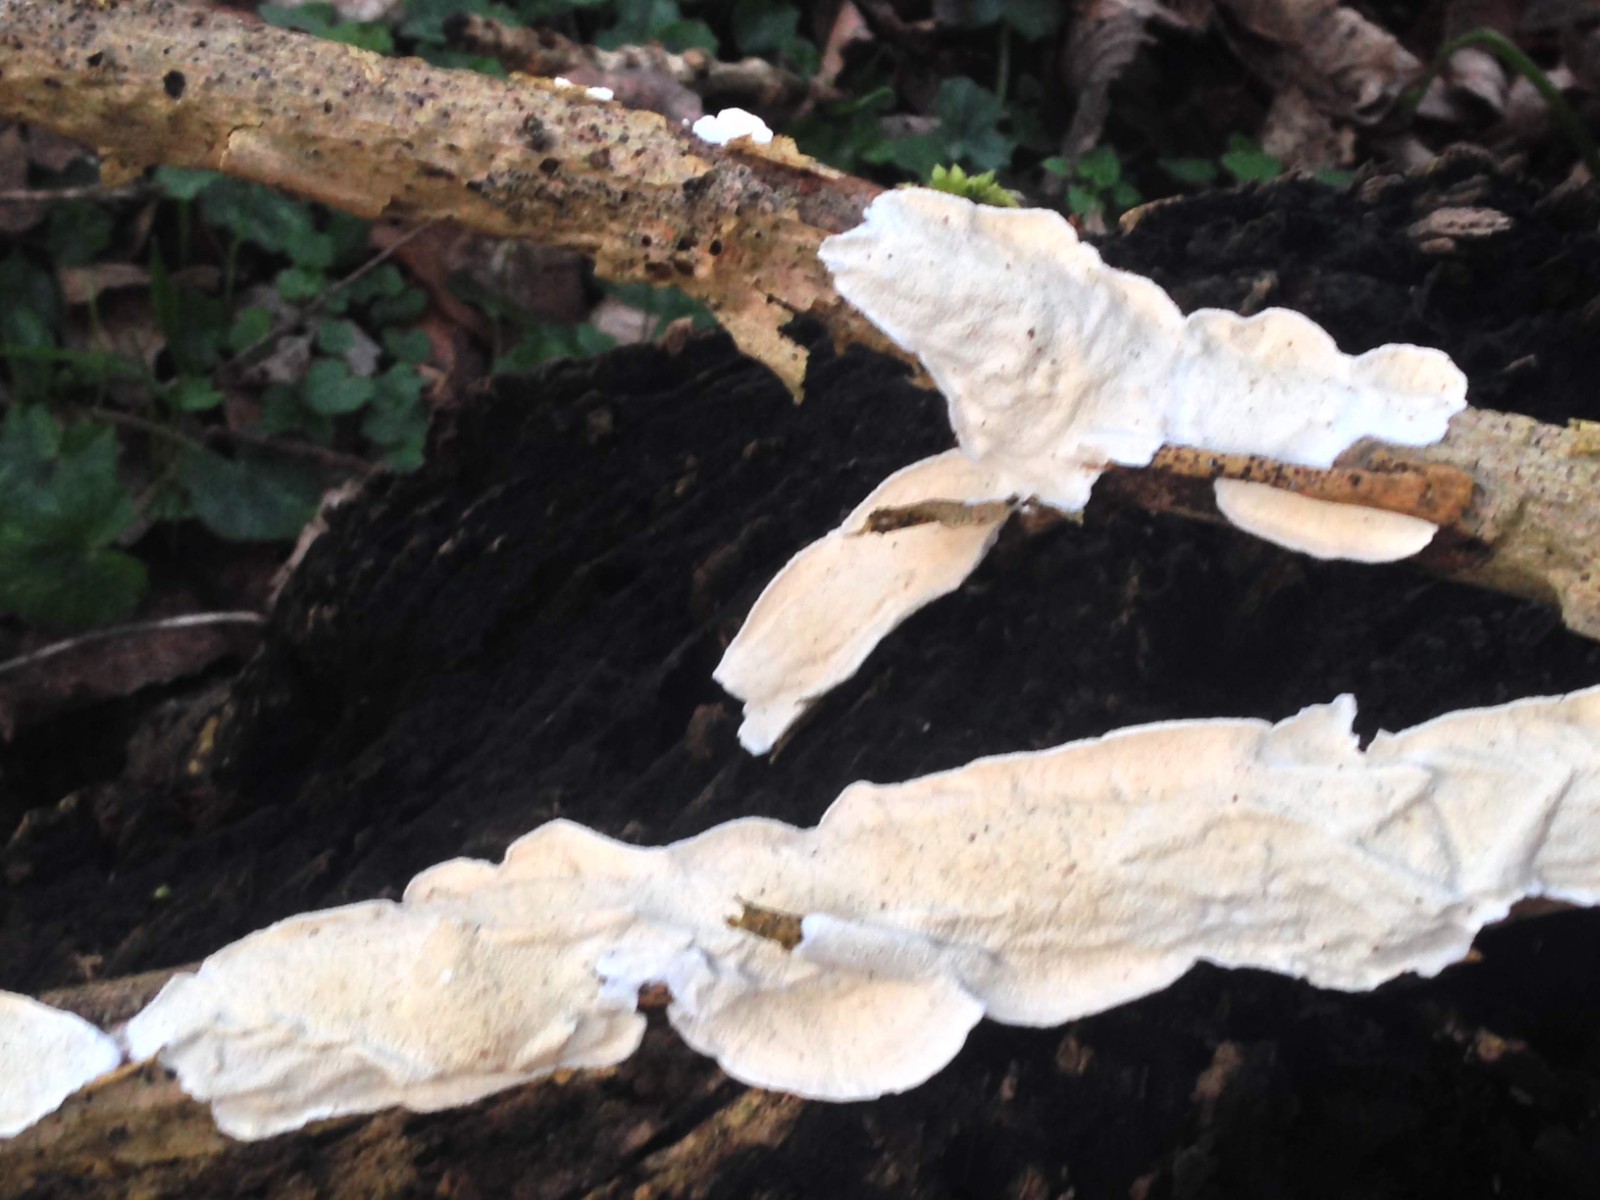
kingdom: Fungi
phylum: Basidiomycota
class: Agaricomycetes
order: Polyporales
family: Irpicaceae
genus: Byssomerulius
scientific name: Byssomerulius corium
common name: læder-åresvamp
